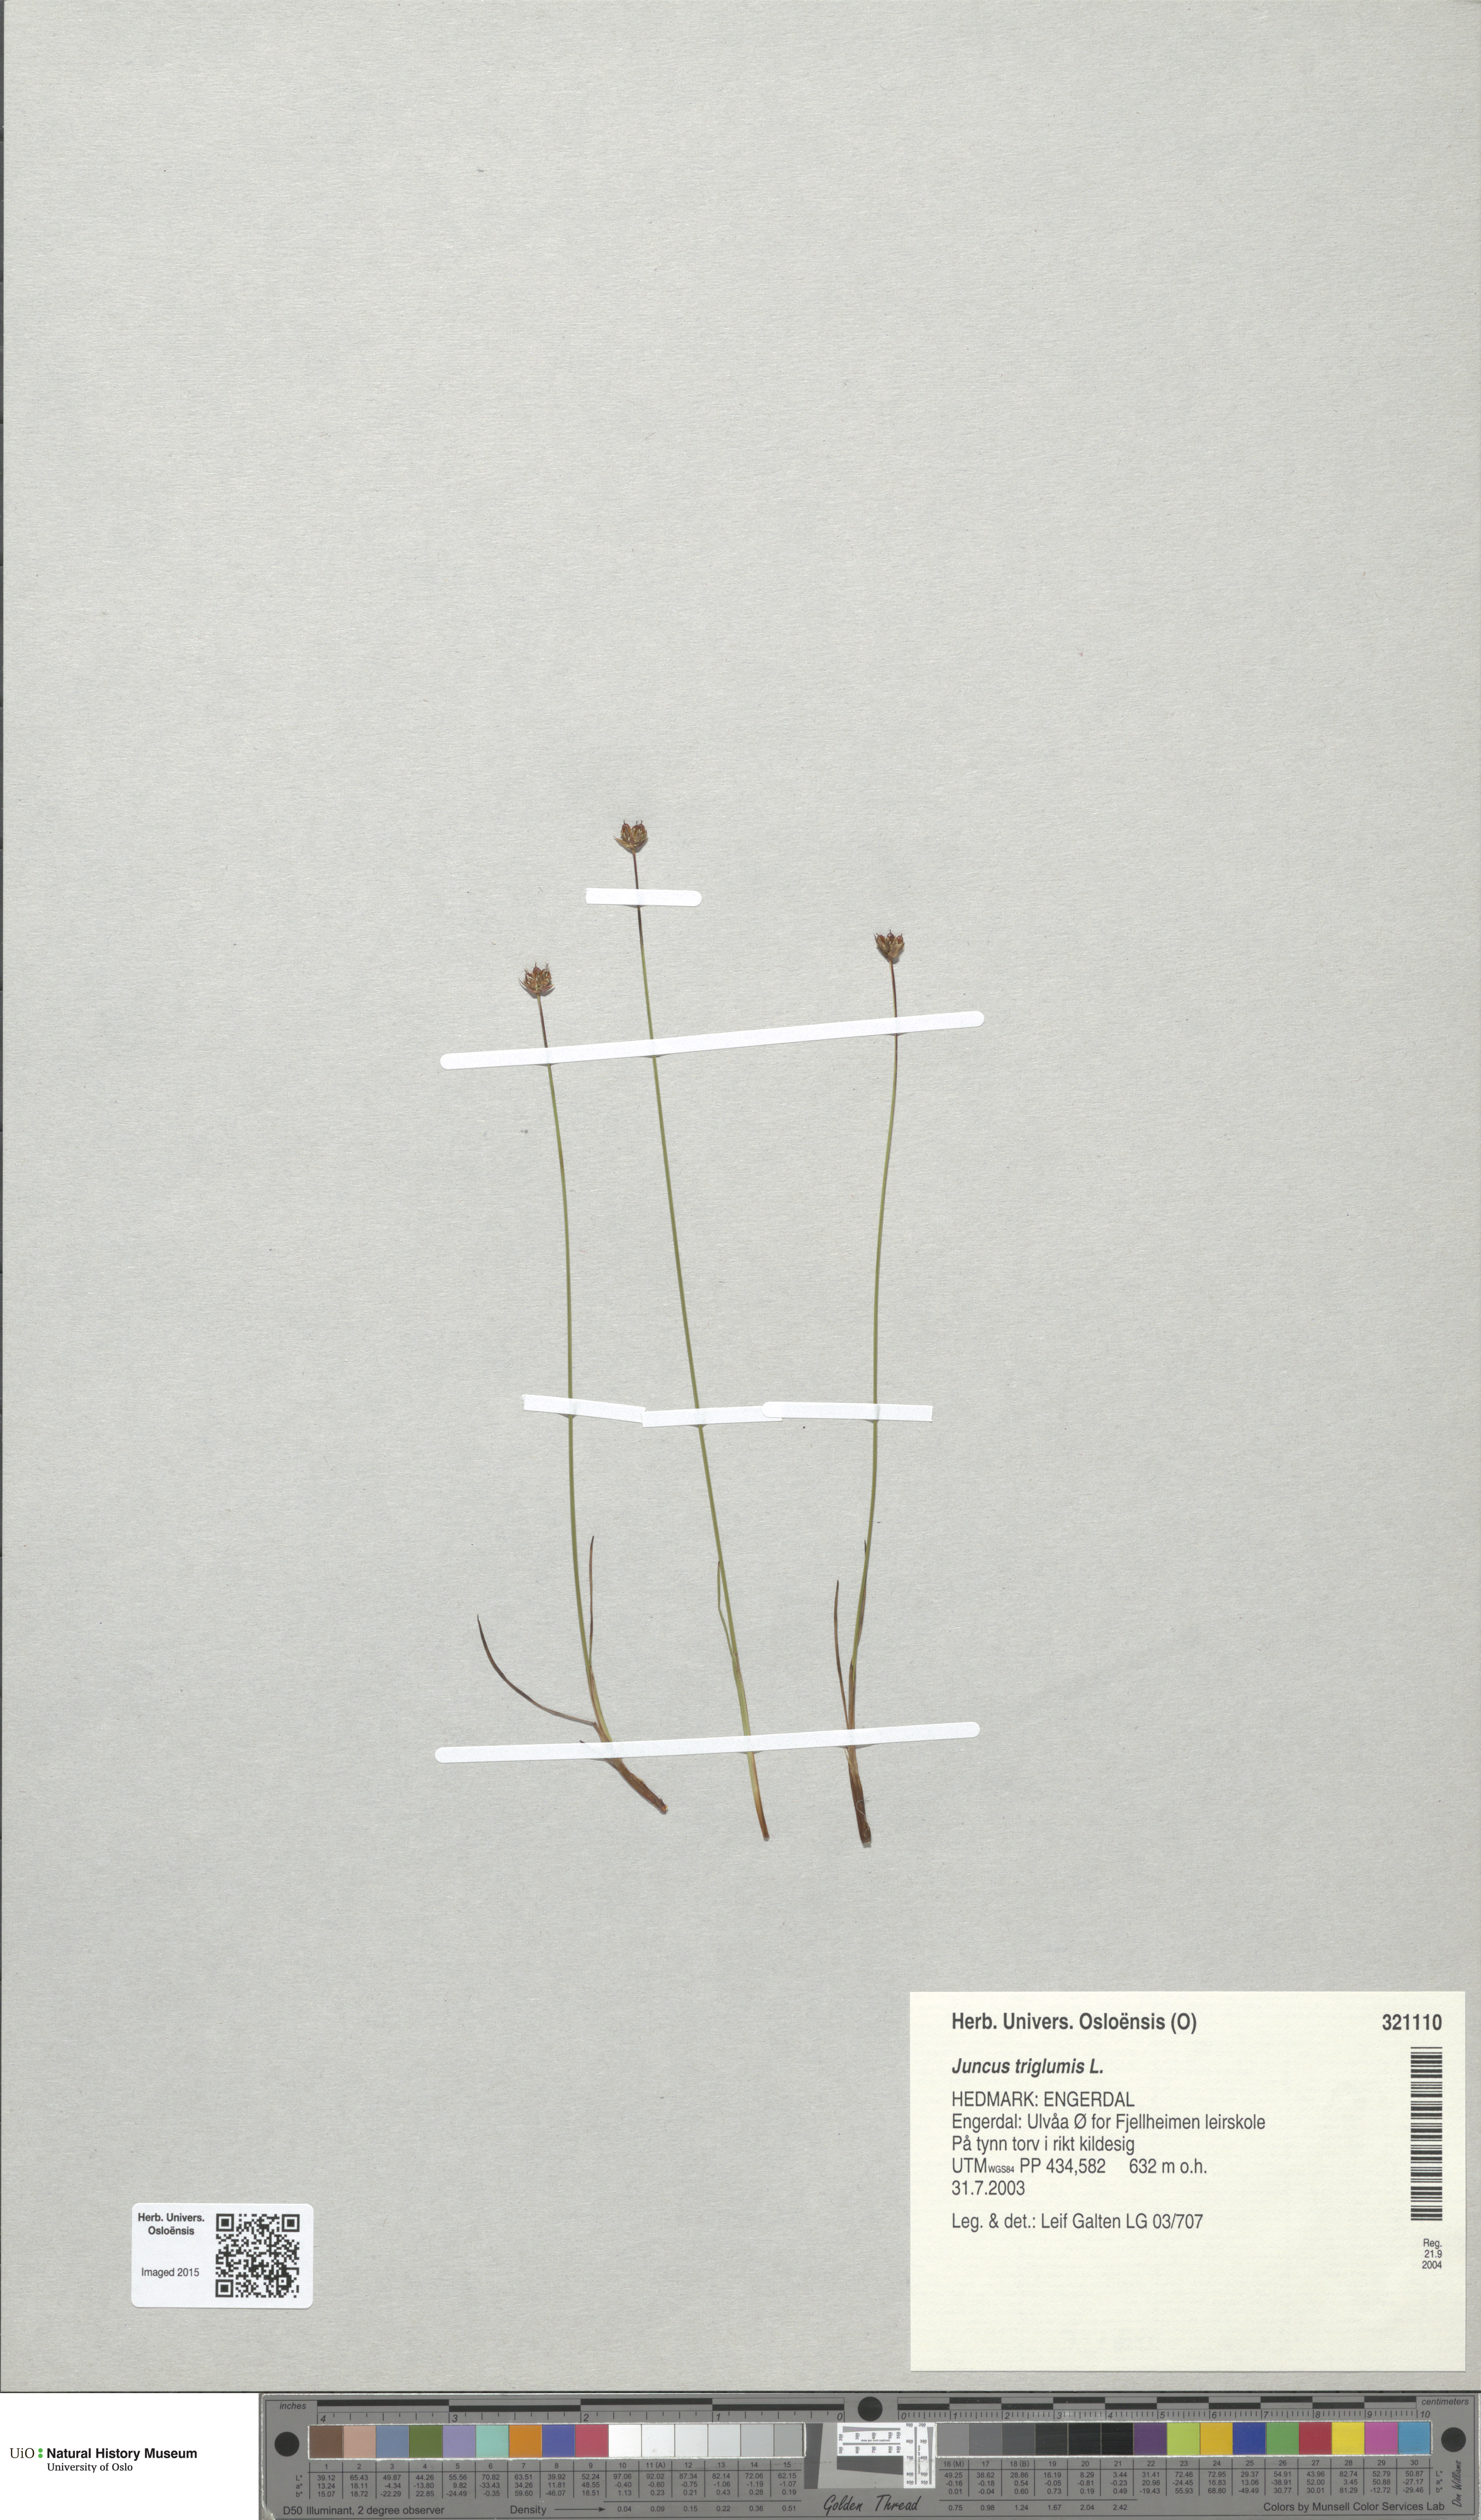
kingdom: Plantae
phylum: Tracheophyta
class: Liliopsida
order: Poales
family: Juncaceae
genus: Juncus
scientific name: Juncus triglumis
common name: Three-flowered rush
